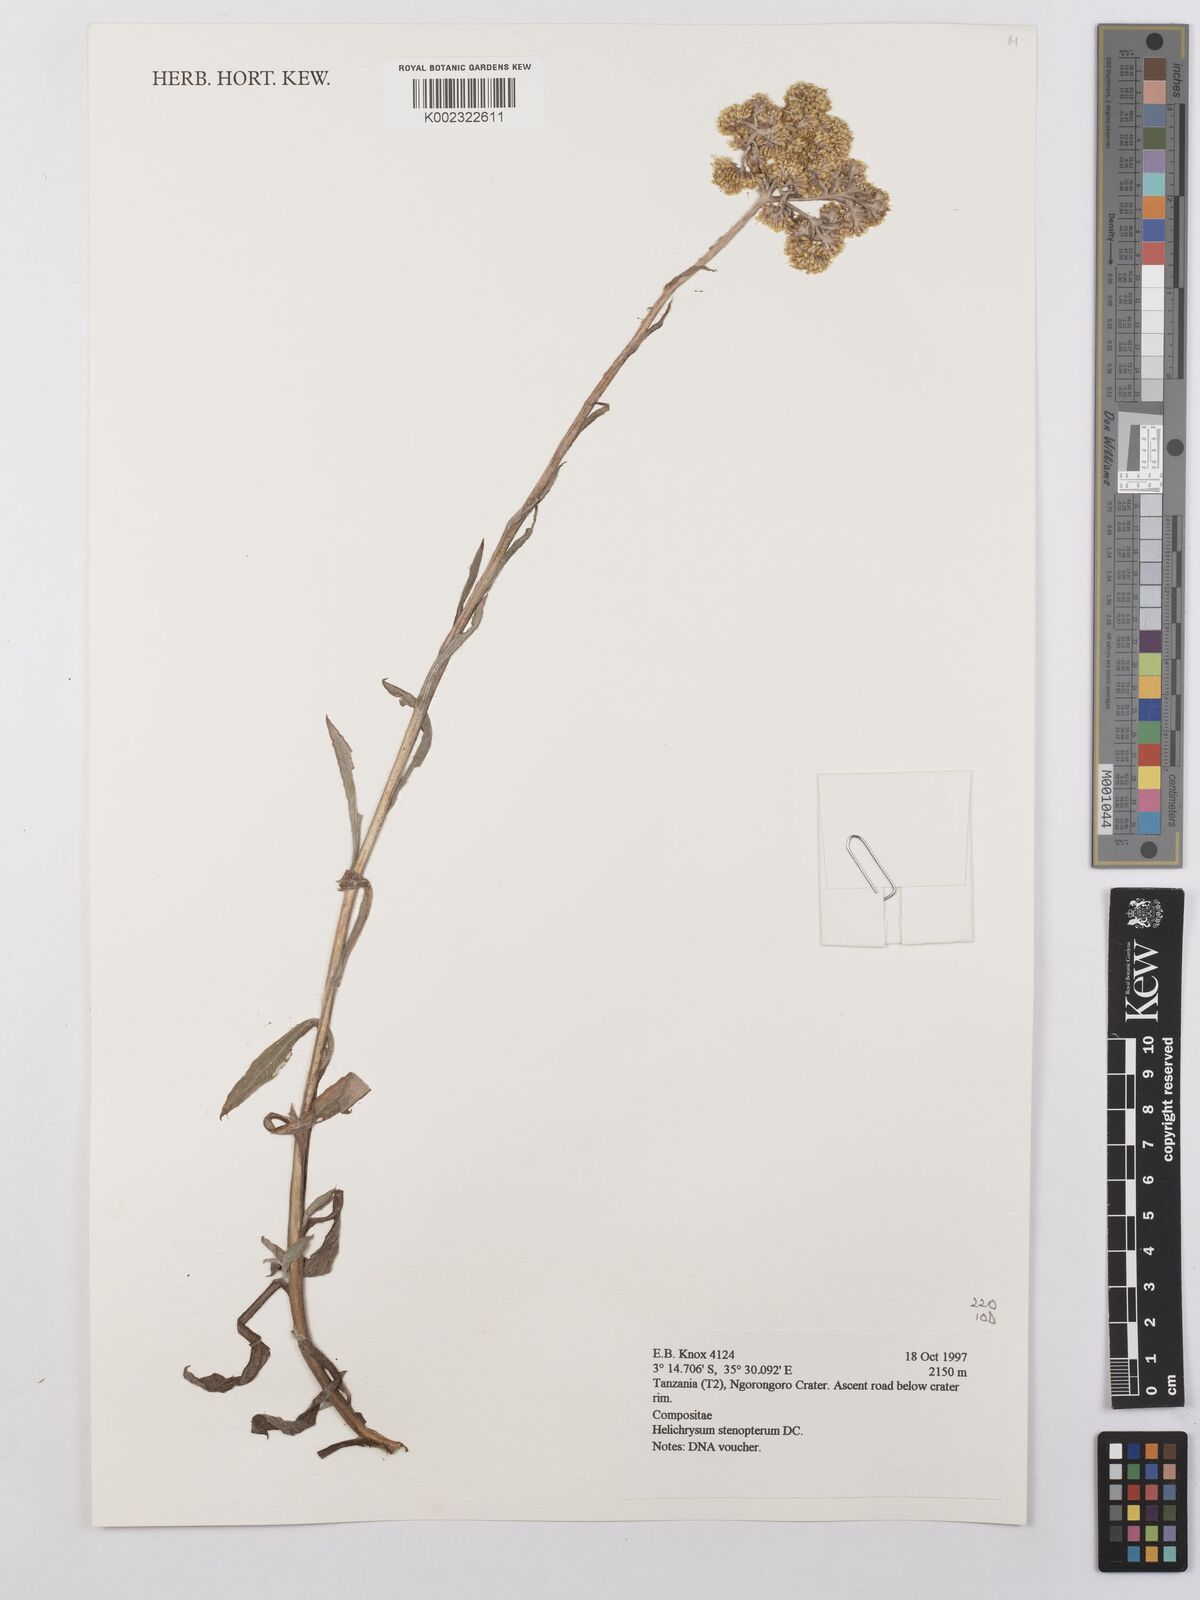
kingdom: Plantae
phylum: Tracheophyta
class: Magnoliopsida
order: Asterales
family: Asteraceae
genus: Helichrysum
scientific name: Helichrysum stenopterum
